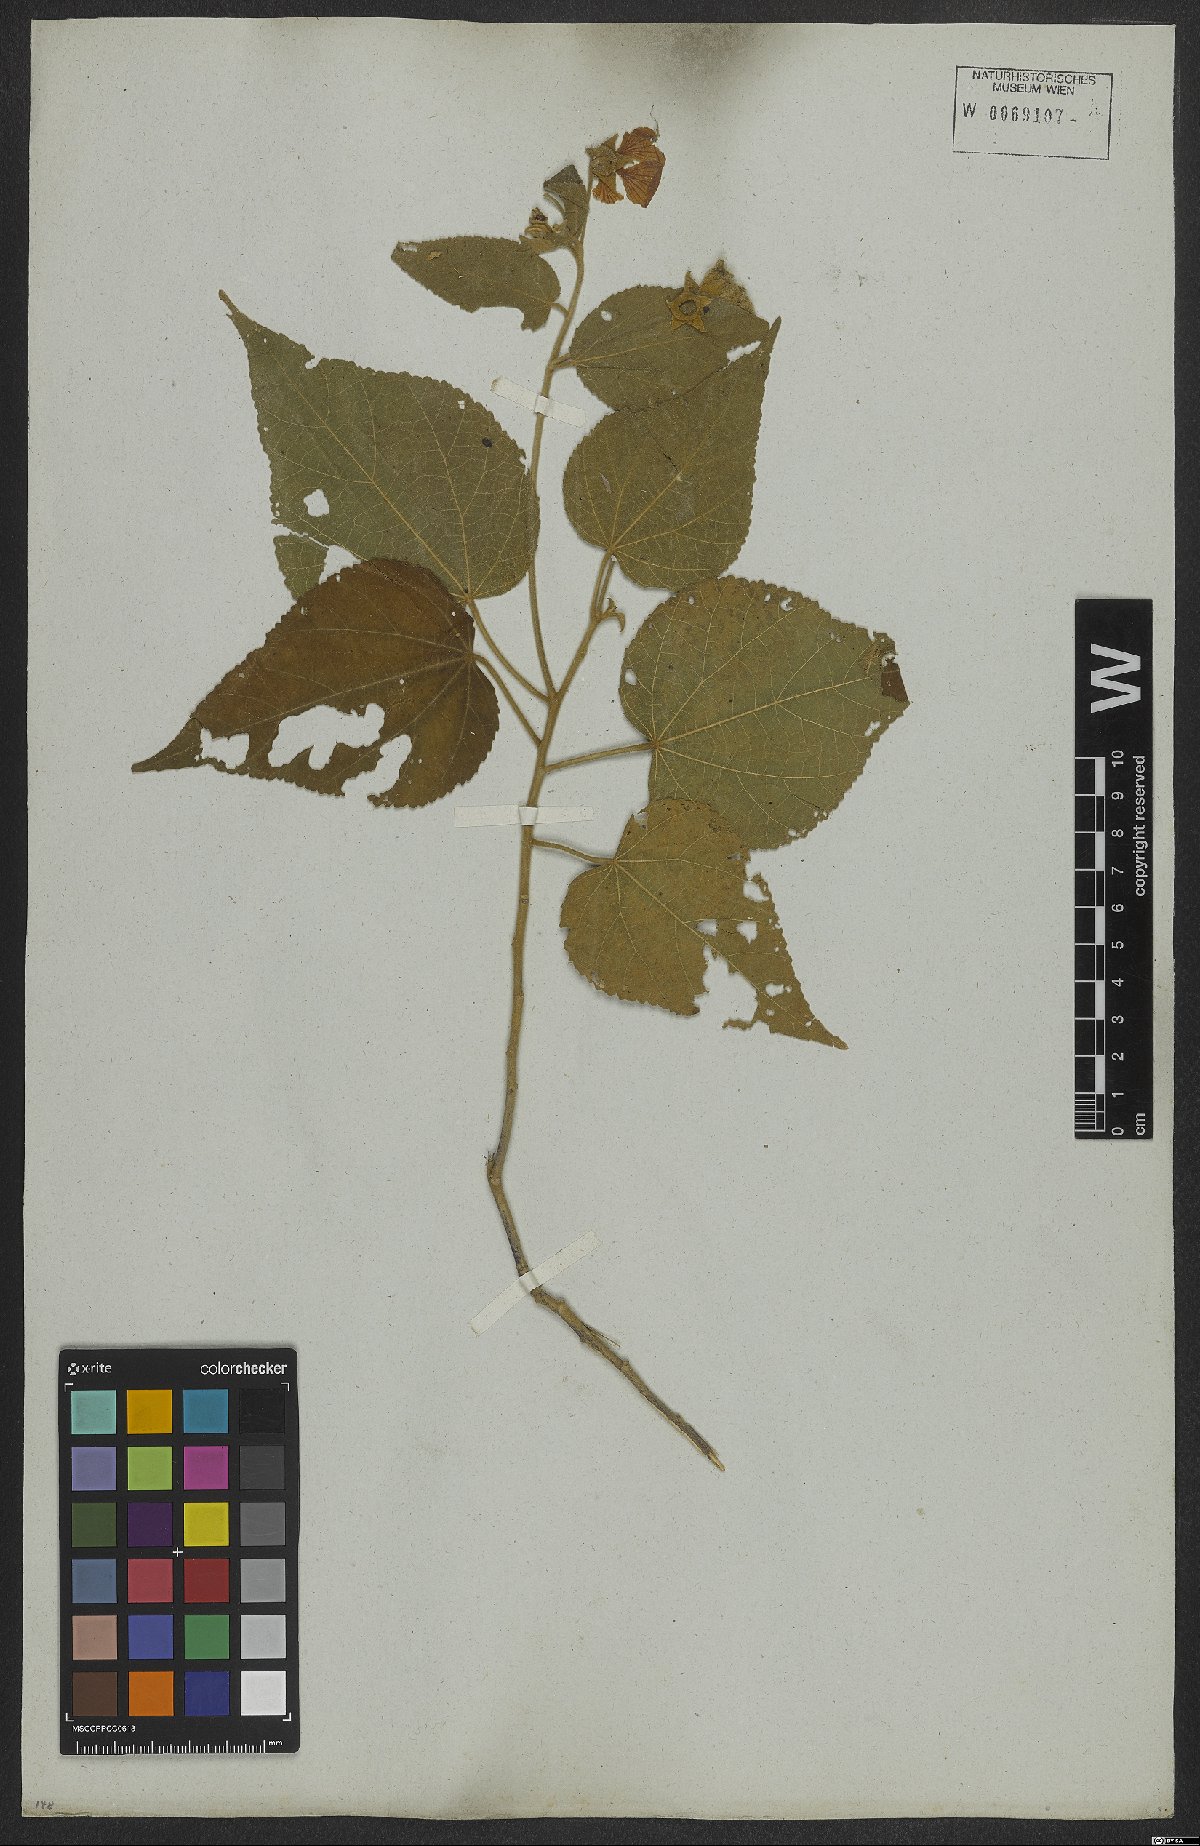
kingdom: Plantae
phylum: Tracheophyta
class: Magnoliopsida
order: Malvales
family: Malvaceae
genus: Bakeridesia
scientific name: Bakeridesia esculenta
